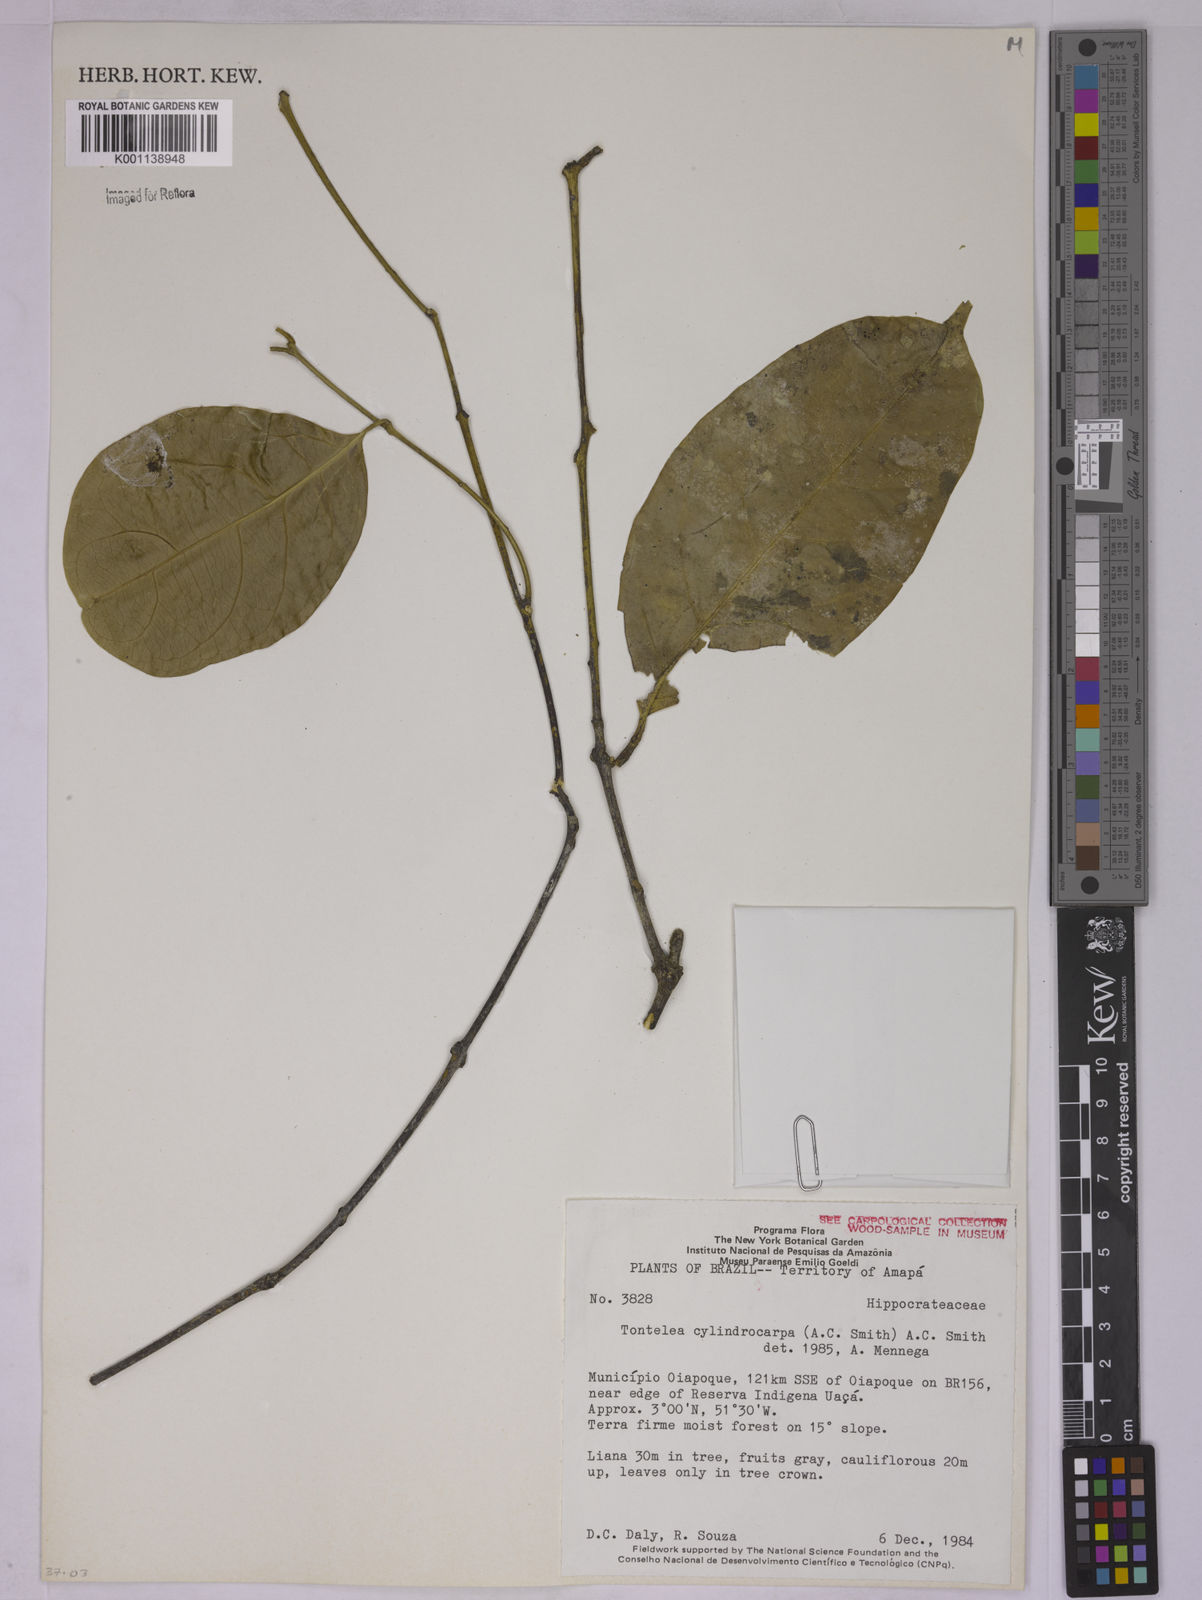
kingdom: Plantae
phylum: Tracheophyta
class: Magnoliopsida
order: Celastrales
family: Celastraceae
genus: Tontelea
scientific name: Tontelea cylindrocarpa
